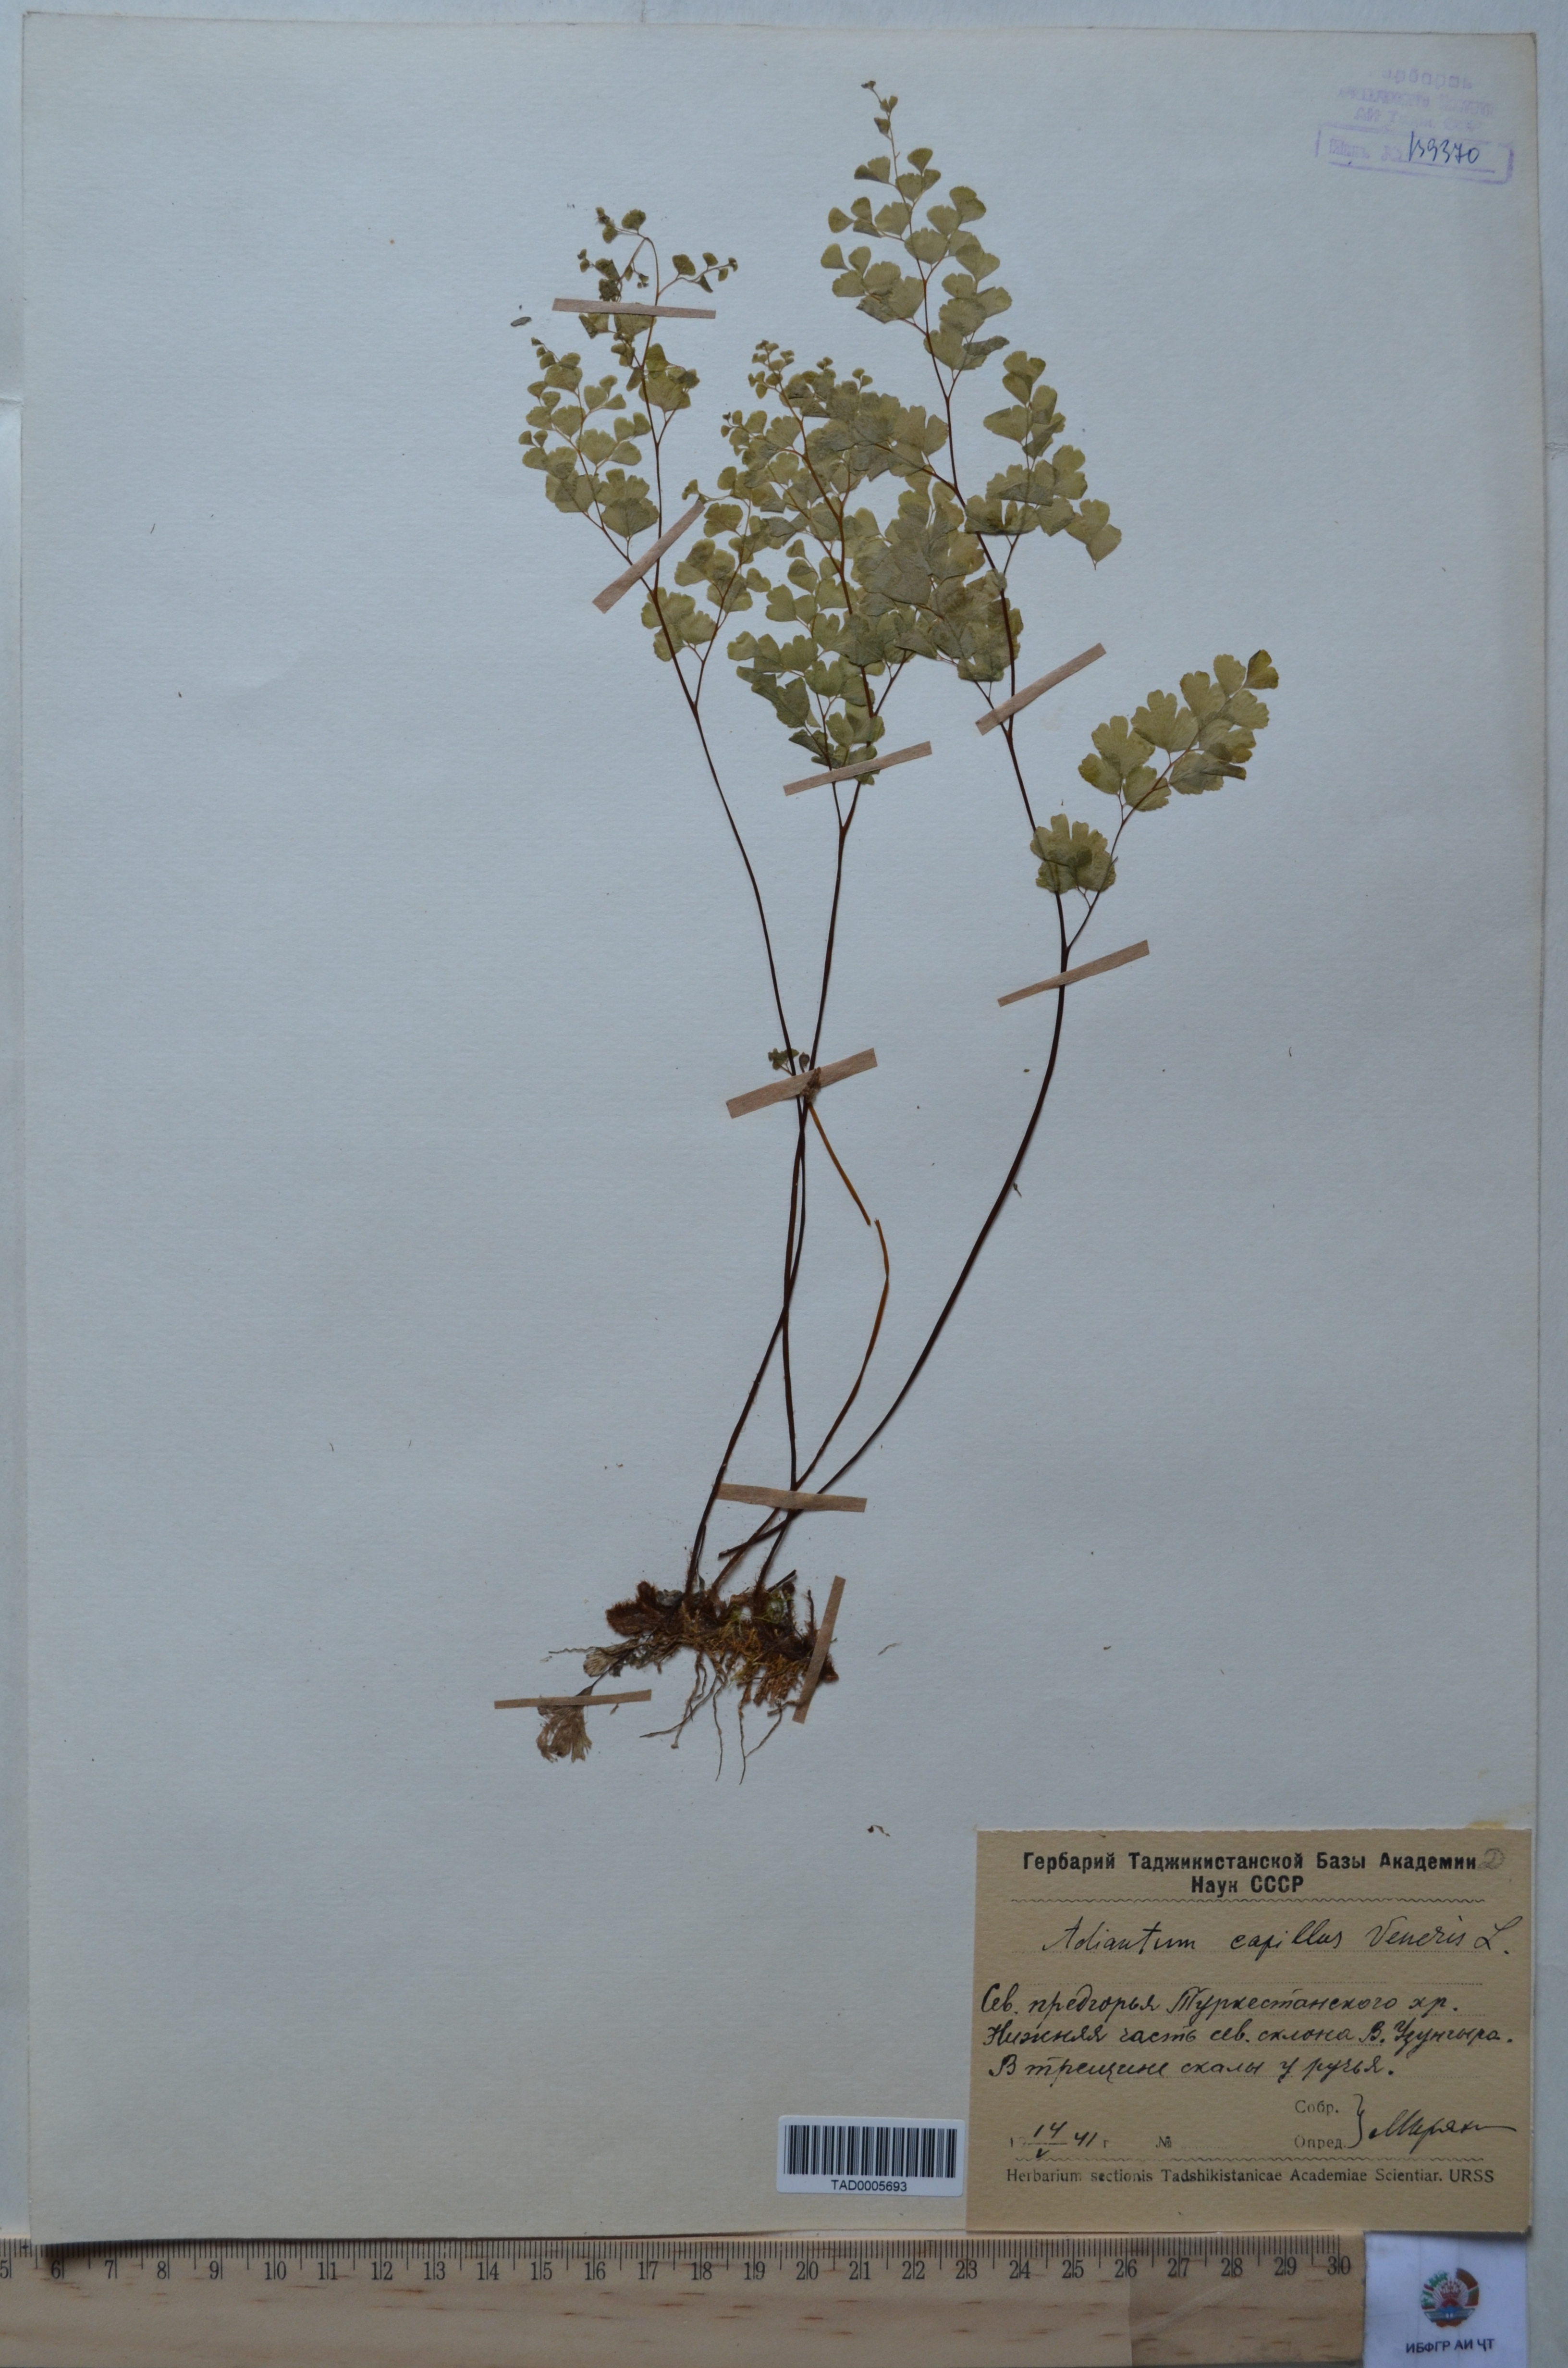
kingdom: Plantae
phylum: Tracheophyta
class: Polypodiopsida
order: Polypodiales
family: Pteridaceae
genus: Adiantum
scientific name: Adiantum capillus-veneris
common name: Maidenhair fern
